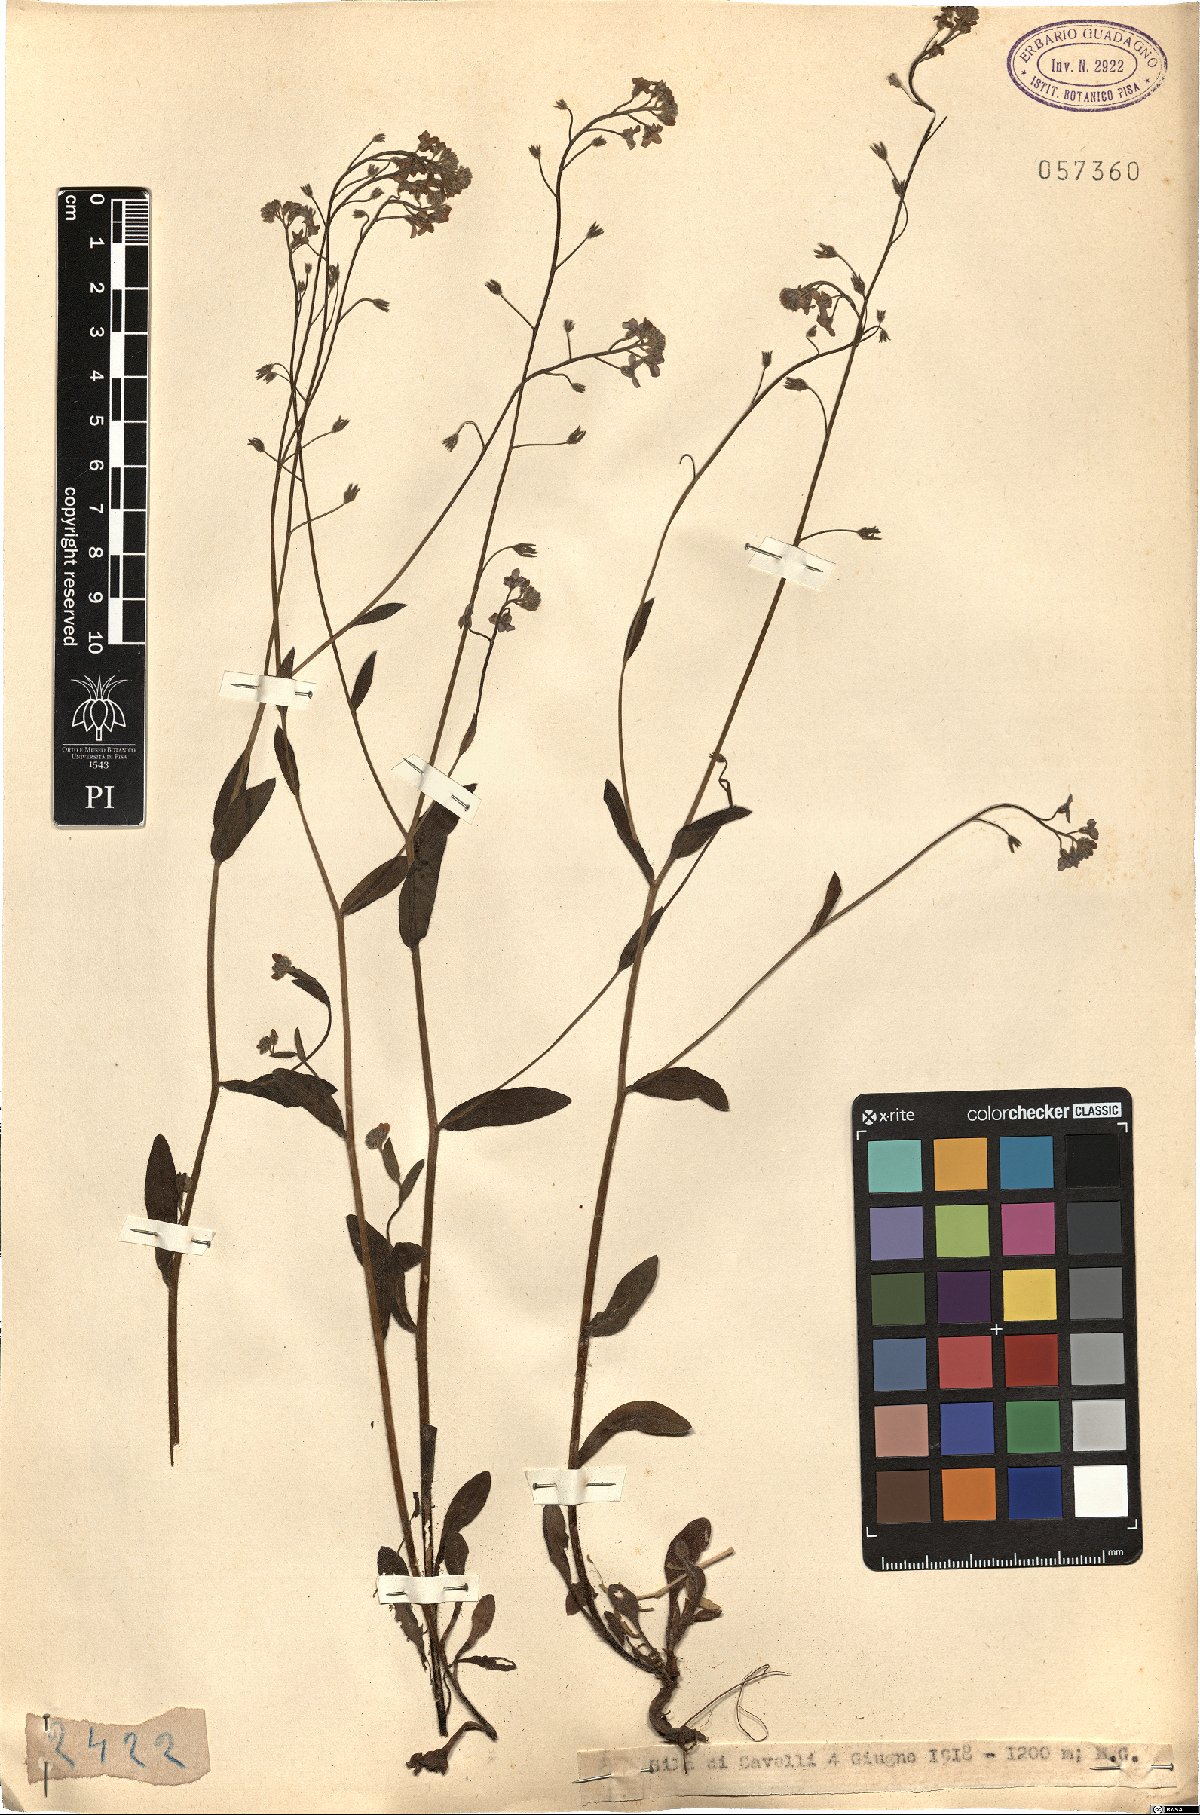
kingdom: Plantae
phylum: Tracheophyta
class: Magnoliopsida
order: Boraginales
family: Boraginaceae
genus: Myosotis
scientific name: Myosotis
